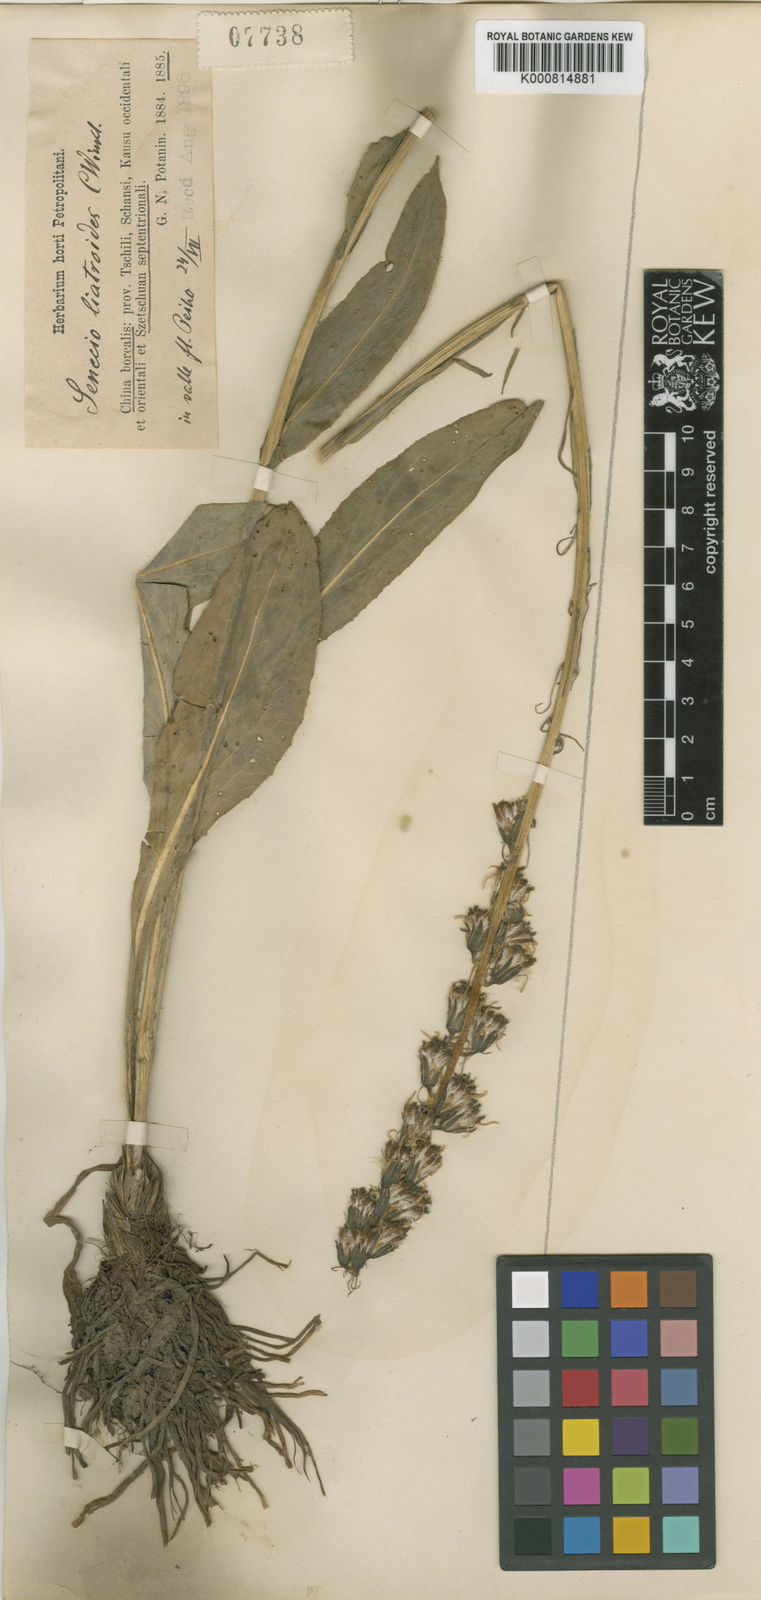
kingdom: Plantae
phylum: Tracheophyta
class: Magnoliopsida
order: Asterales
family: Asteraceae
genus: Ligularia
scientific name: Ligularia liatroides
